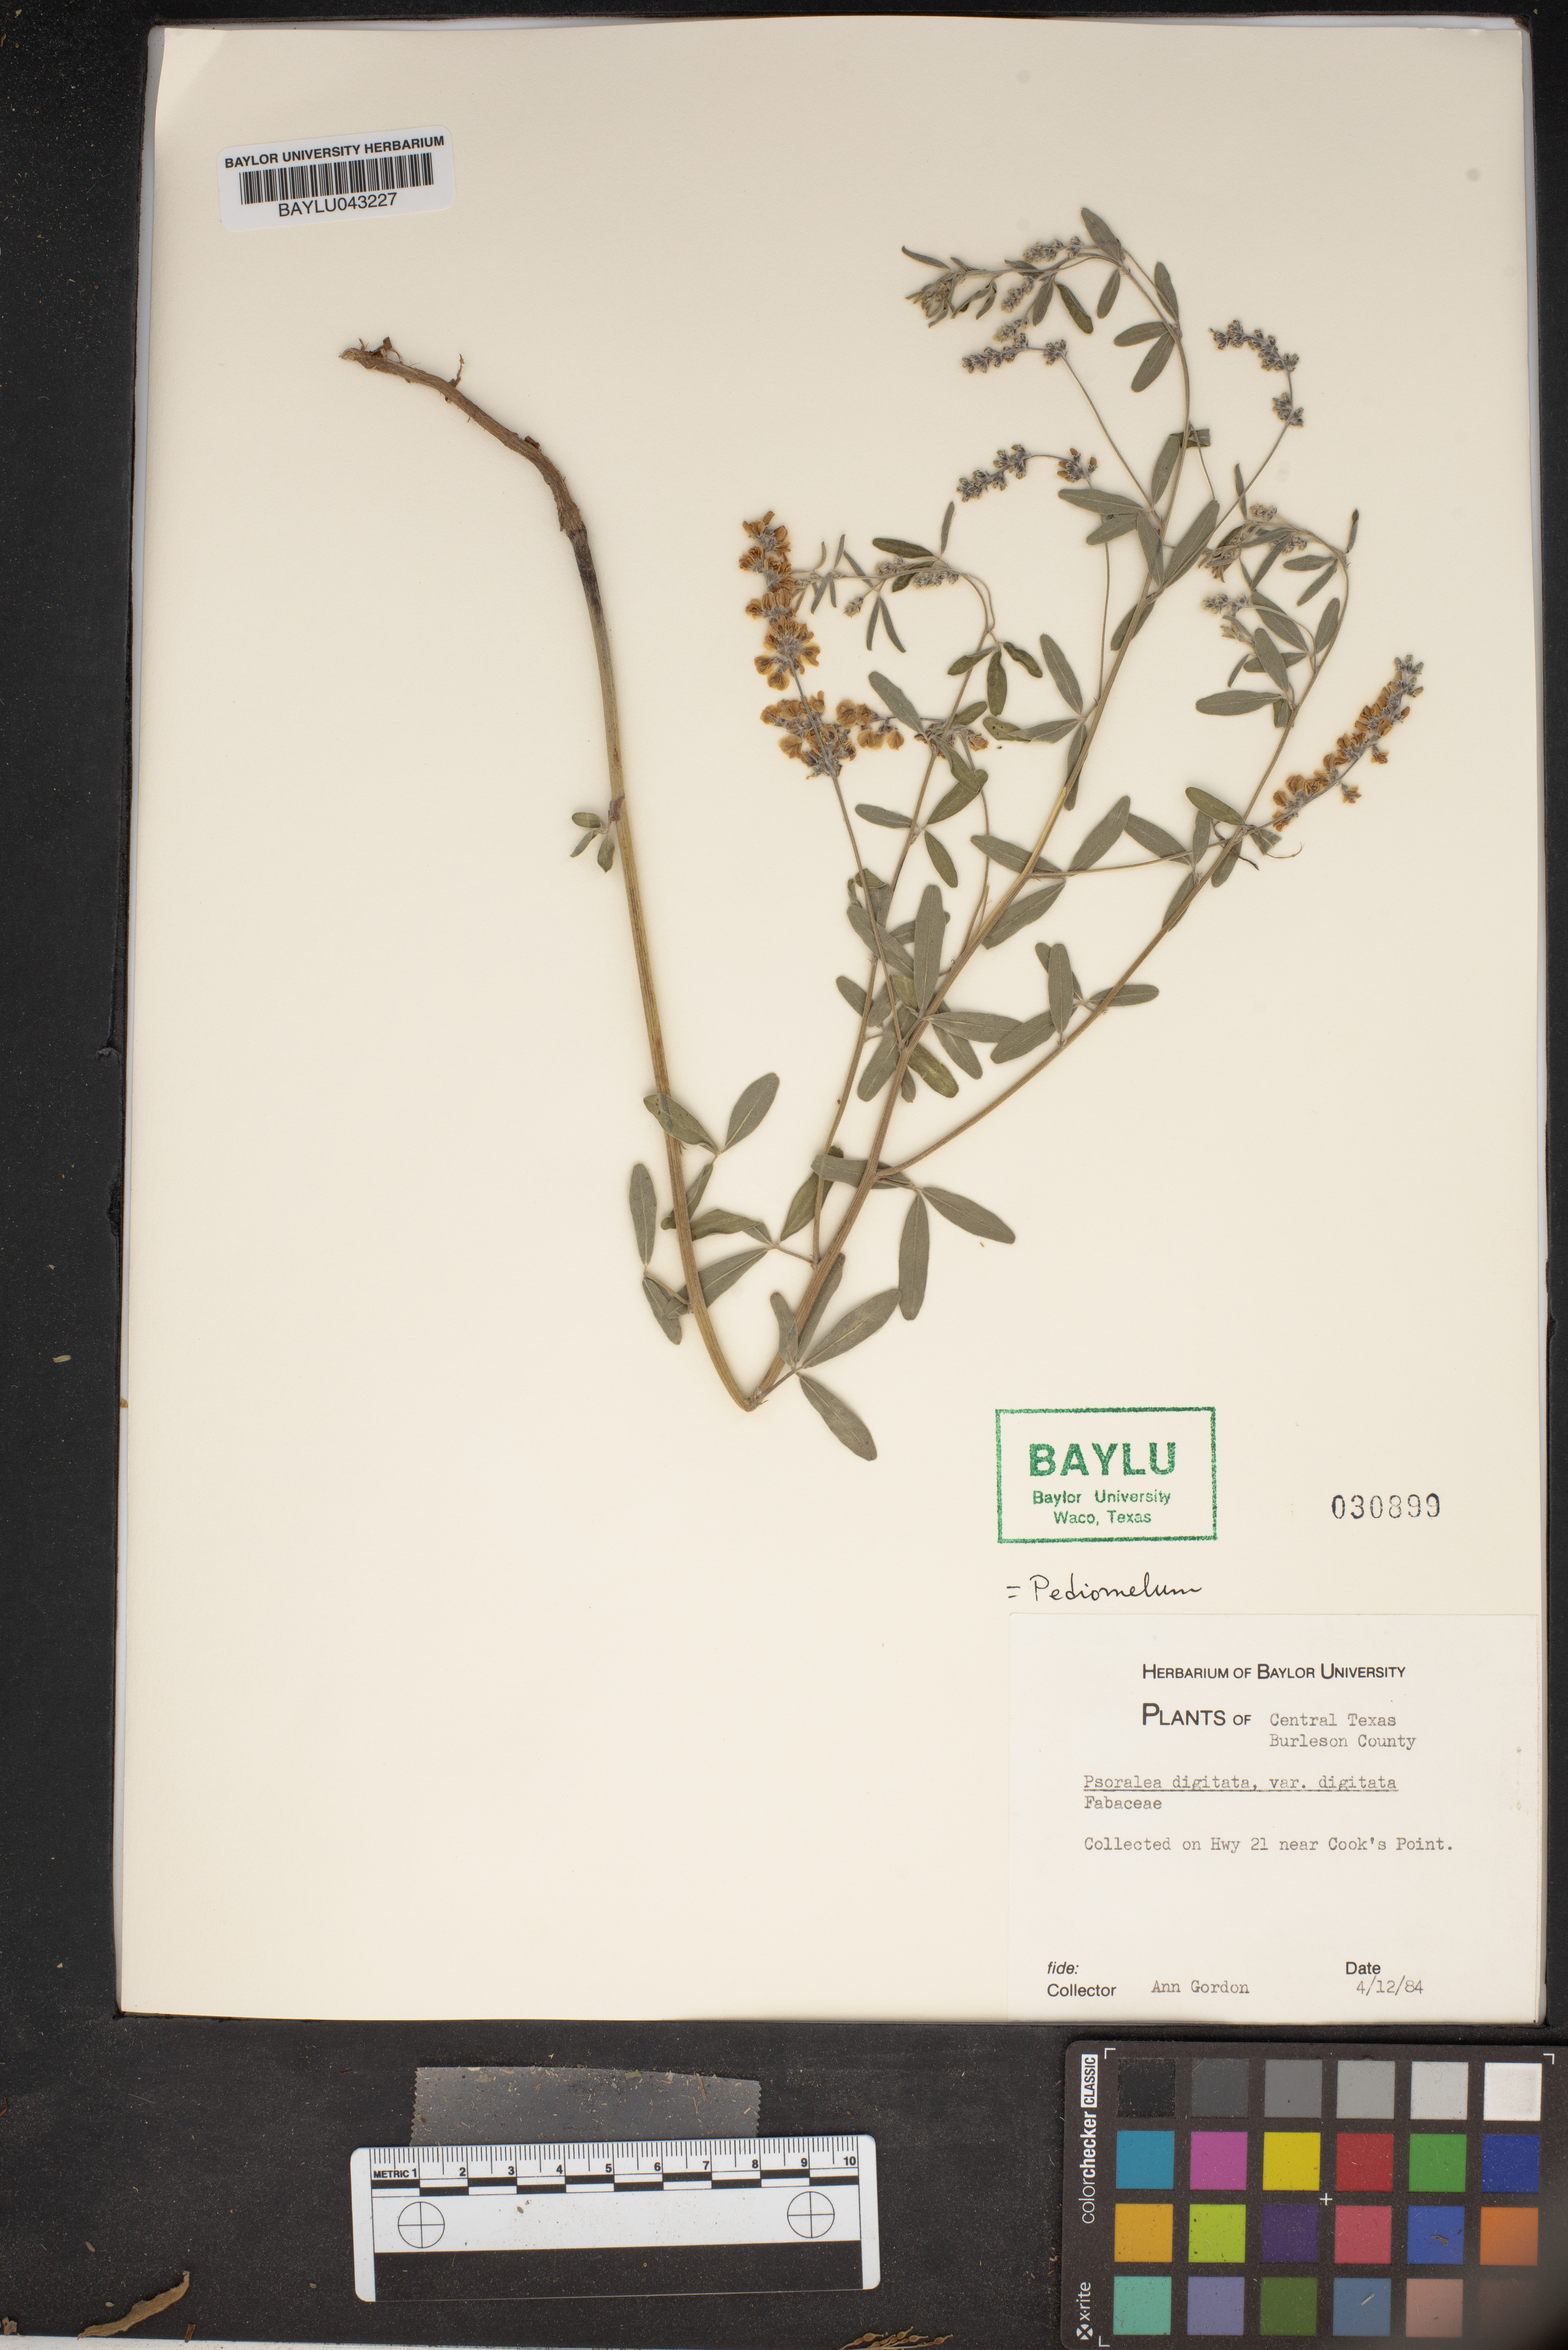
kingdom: Plantae
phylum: Tracheophyta
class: Magnoliopsida
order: Fabales
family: Fabaceae
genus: Pediomelum
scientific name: Pediomelum digitatum
